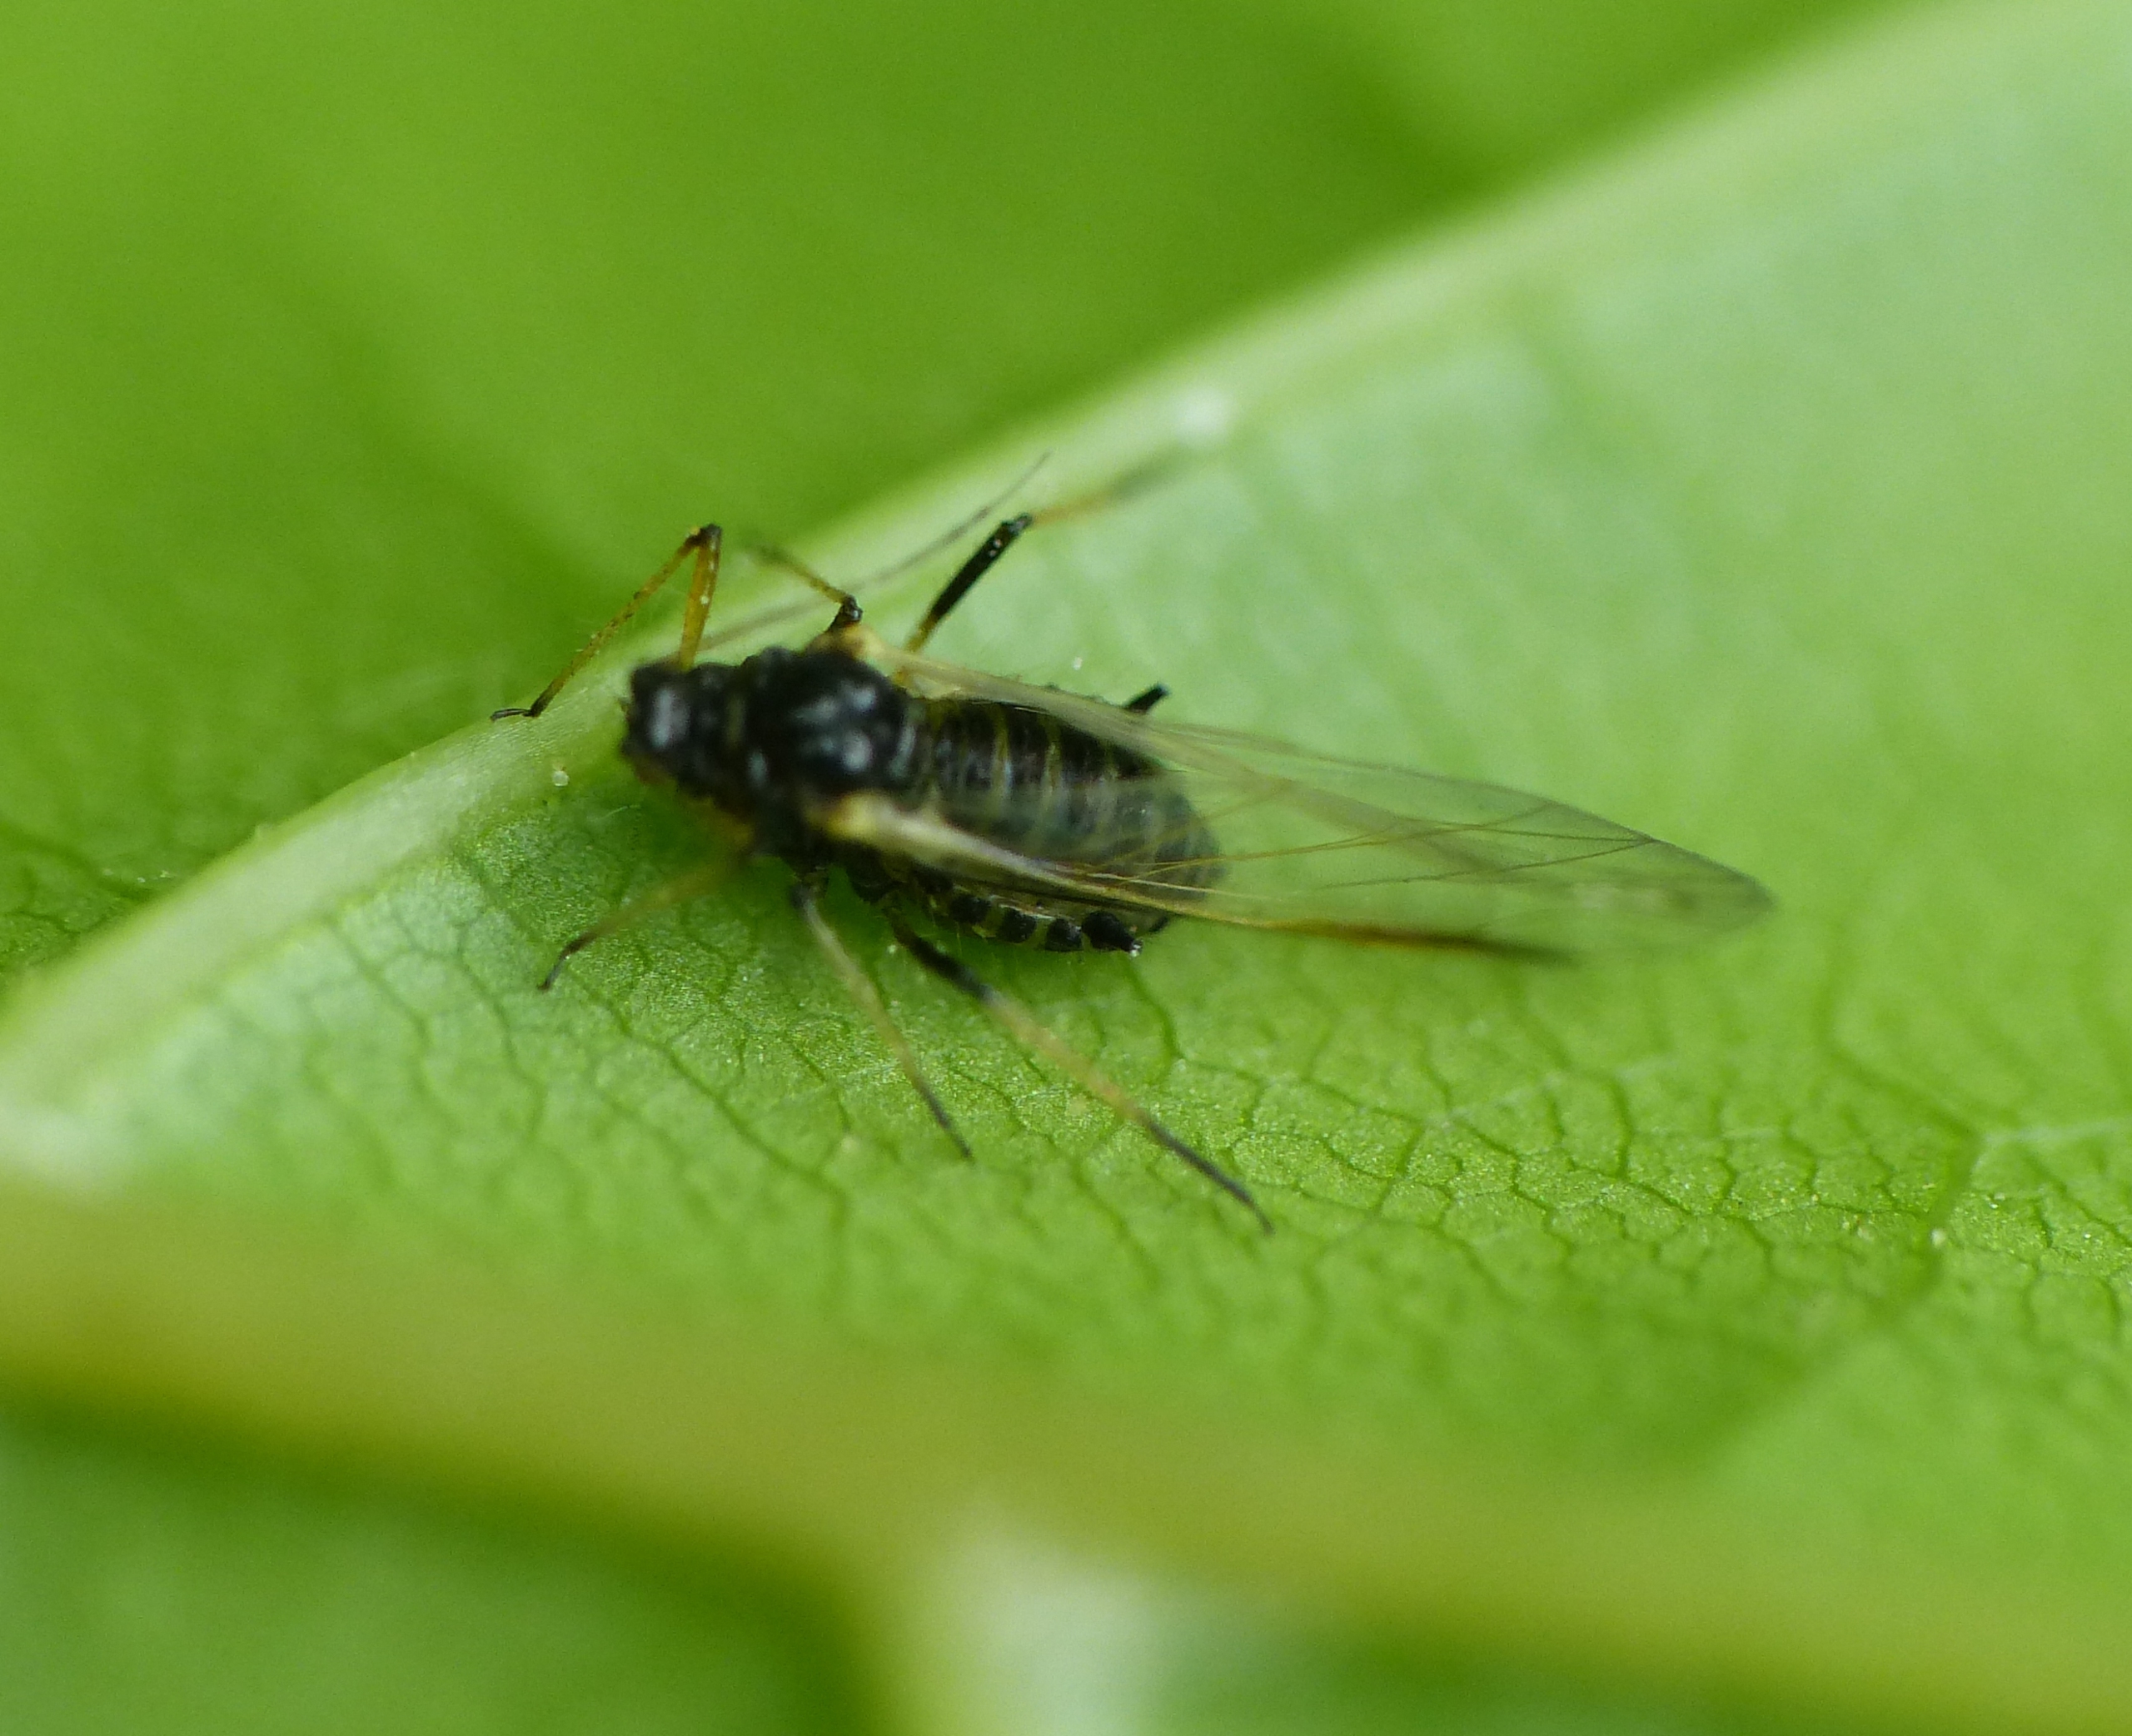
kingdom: Animalia
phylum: Arthropoda
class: Insecta
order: Hemiptera
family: Aphididae
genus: Periphyllus
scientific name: Periphyllus testudinaceus
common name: Skildpaddebladlus
